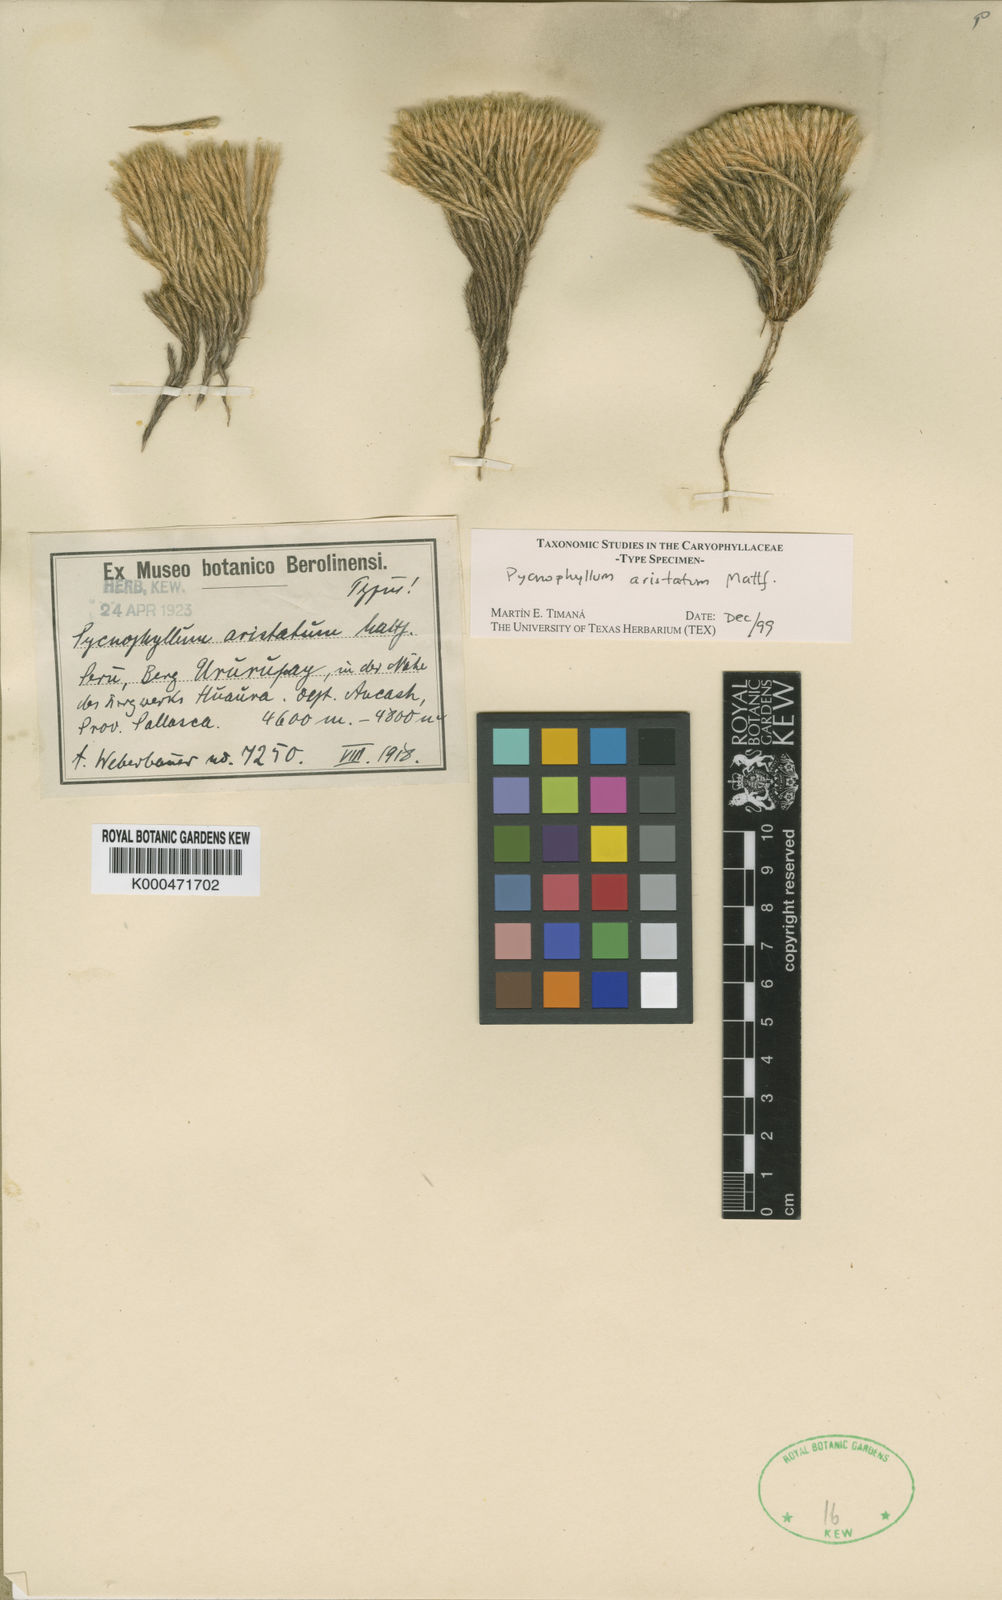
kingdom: Plantae
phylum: Tracheophyta
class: Magnoliopsida
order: Caryophyllales
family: Caryophyllaceae
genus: Pycnophyllum
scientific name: Pycnophyllum aristatum
